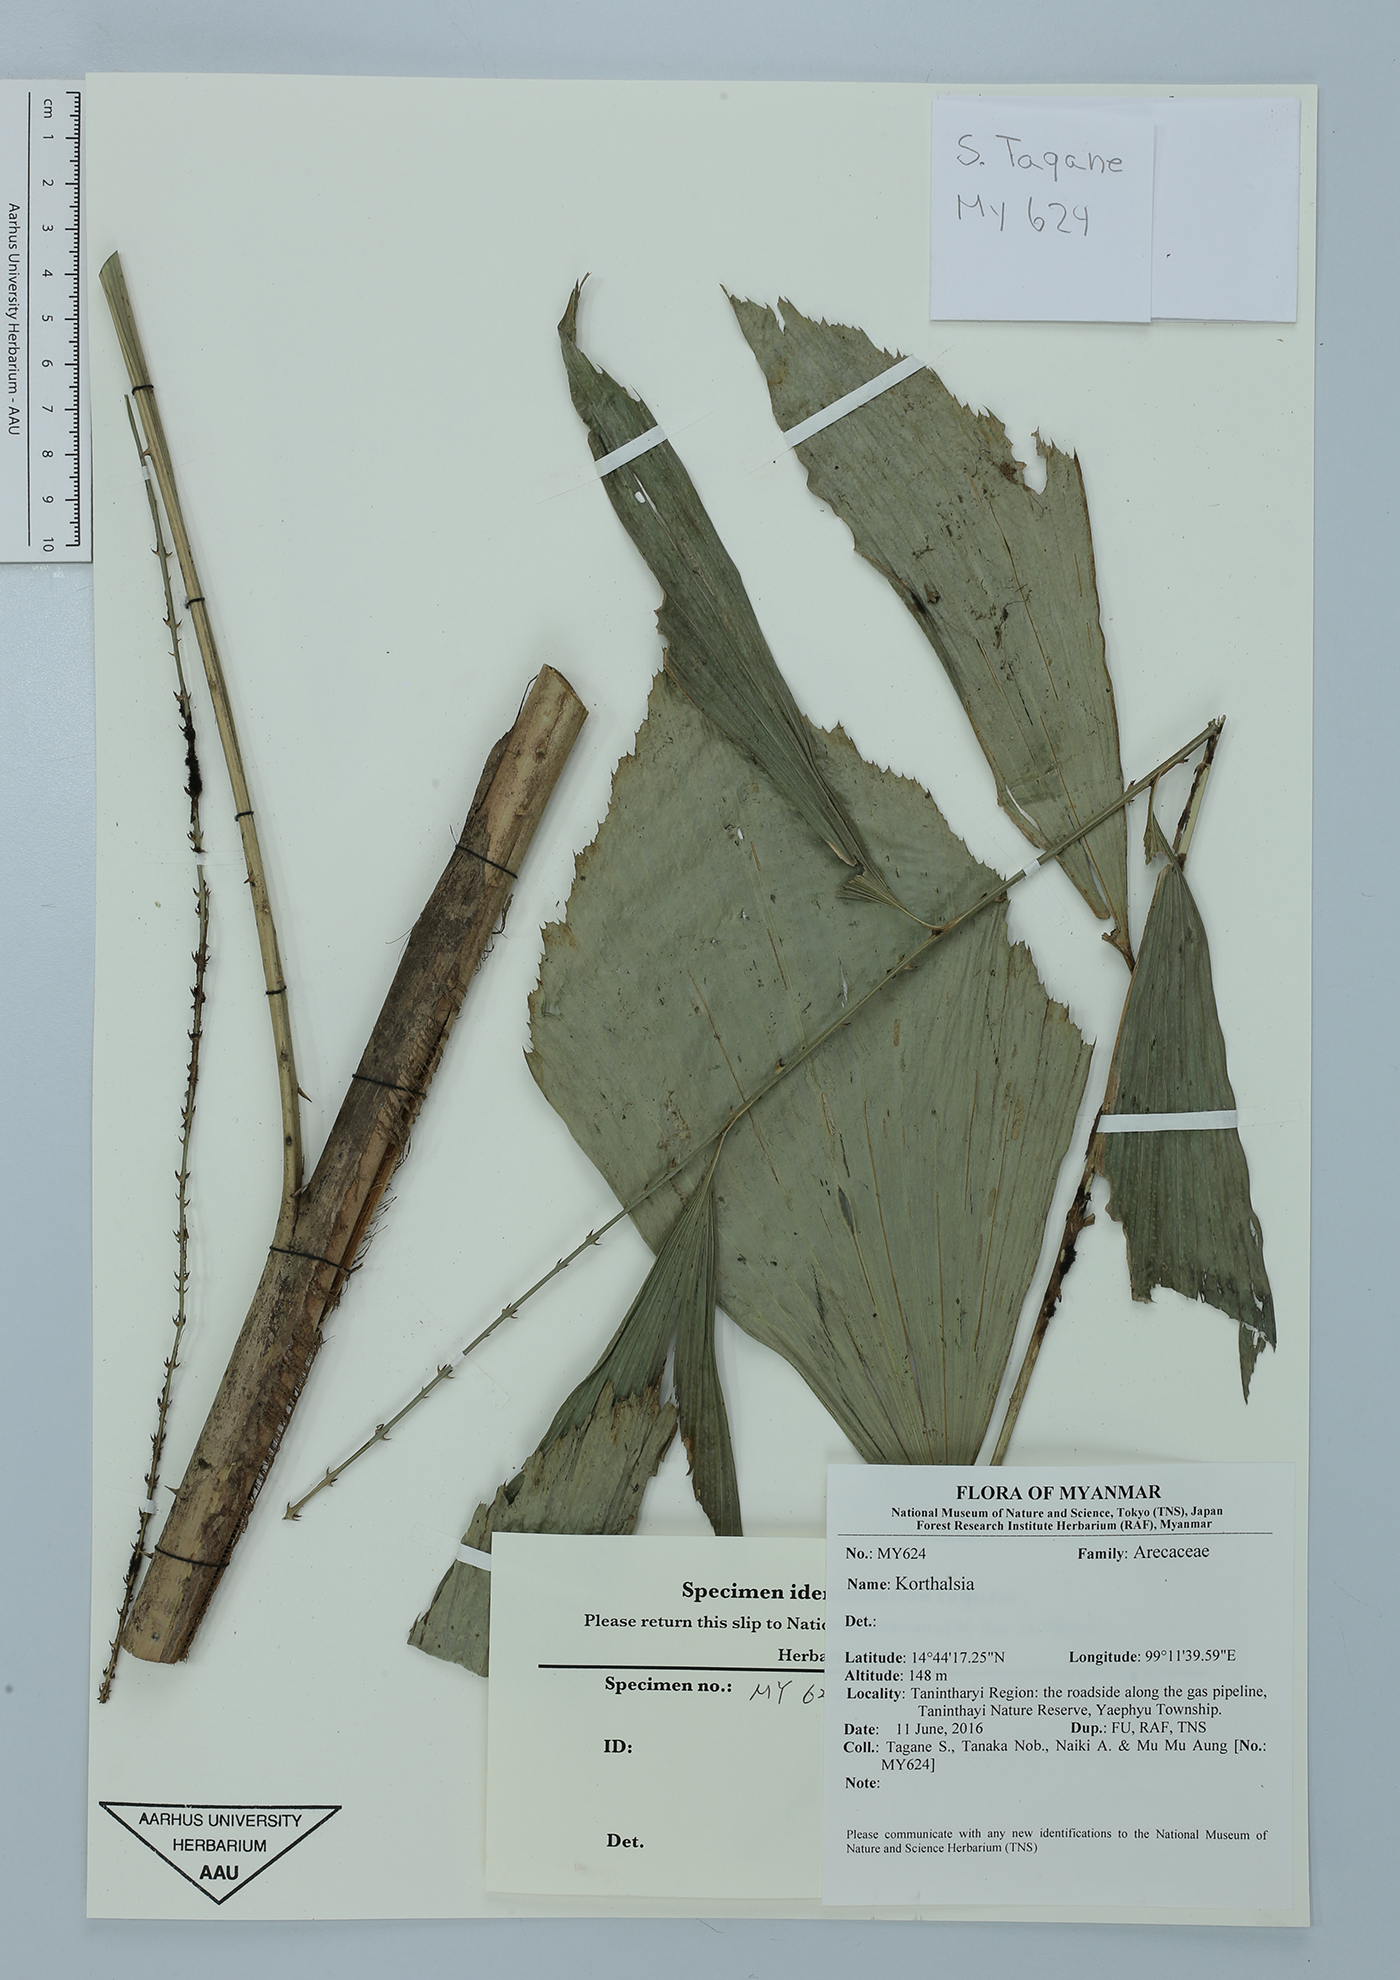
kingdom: Plantae
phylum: Tracheophyta
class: Liliopsida
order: Arecales
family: Arecaceae
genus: Korthalsia
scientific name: Korthalsia
